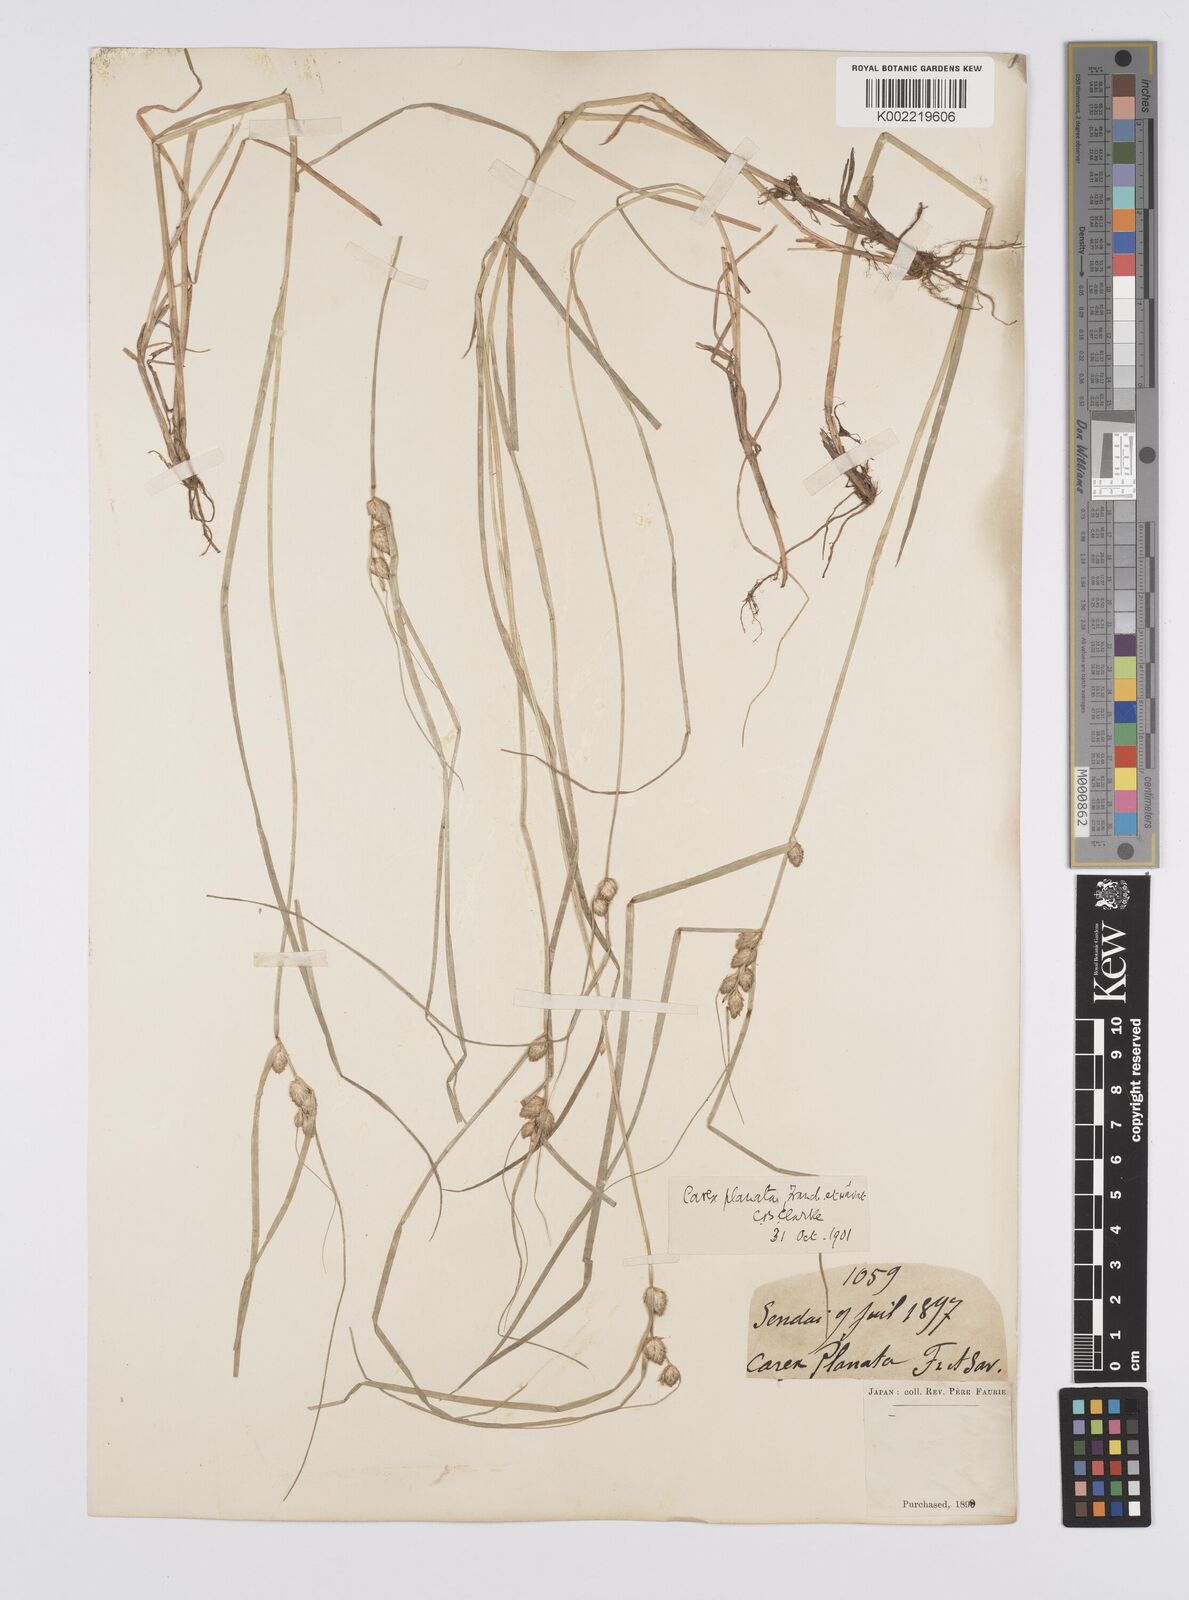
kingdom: Plantae
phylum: Tracheophyta
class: Liliopsida
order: Poales
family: Cyperaceae
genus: Carex
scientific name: Carex planata
